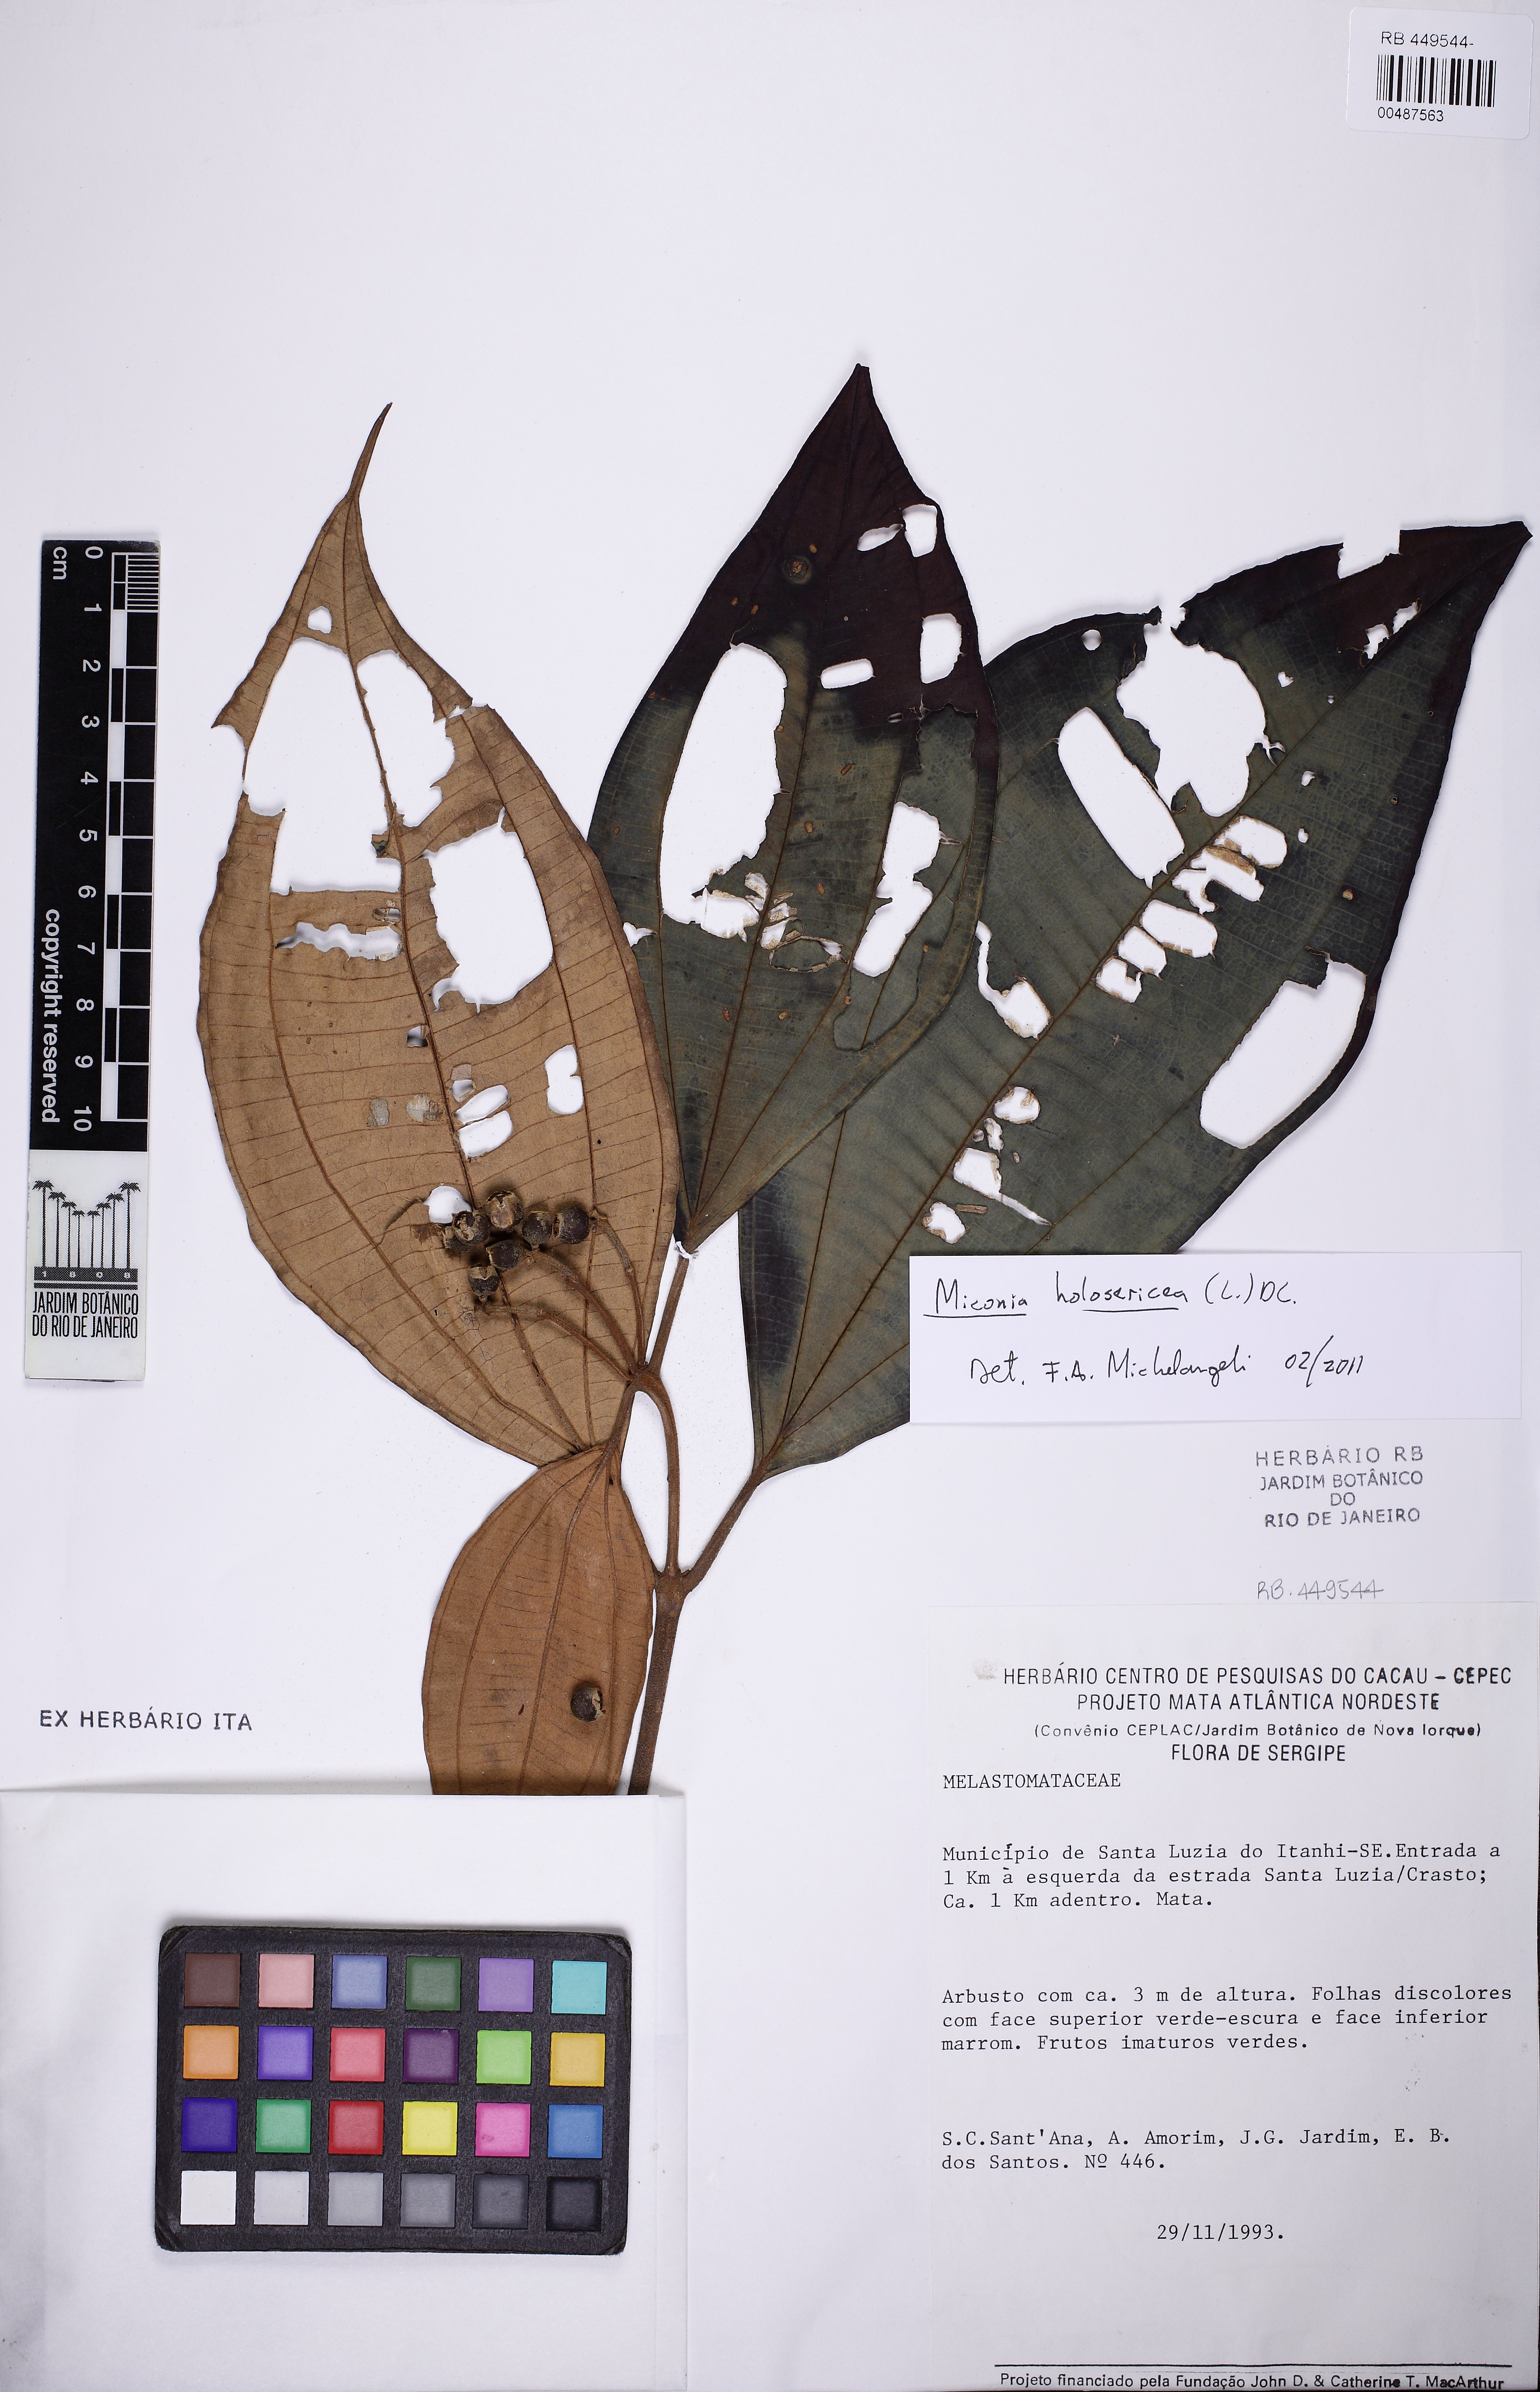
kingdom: Plantae
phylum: Tracheophyta
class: Magnoliopsida
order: Myrtales
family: Melastomataceae
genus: Miconia
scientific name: Miconia holosericea
